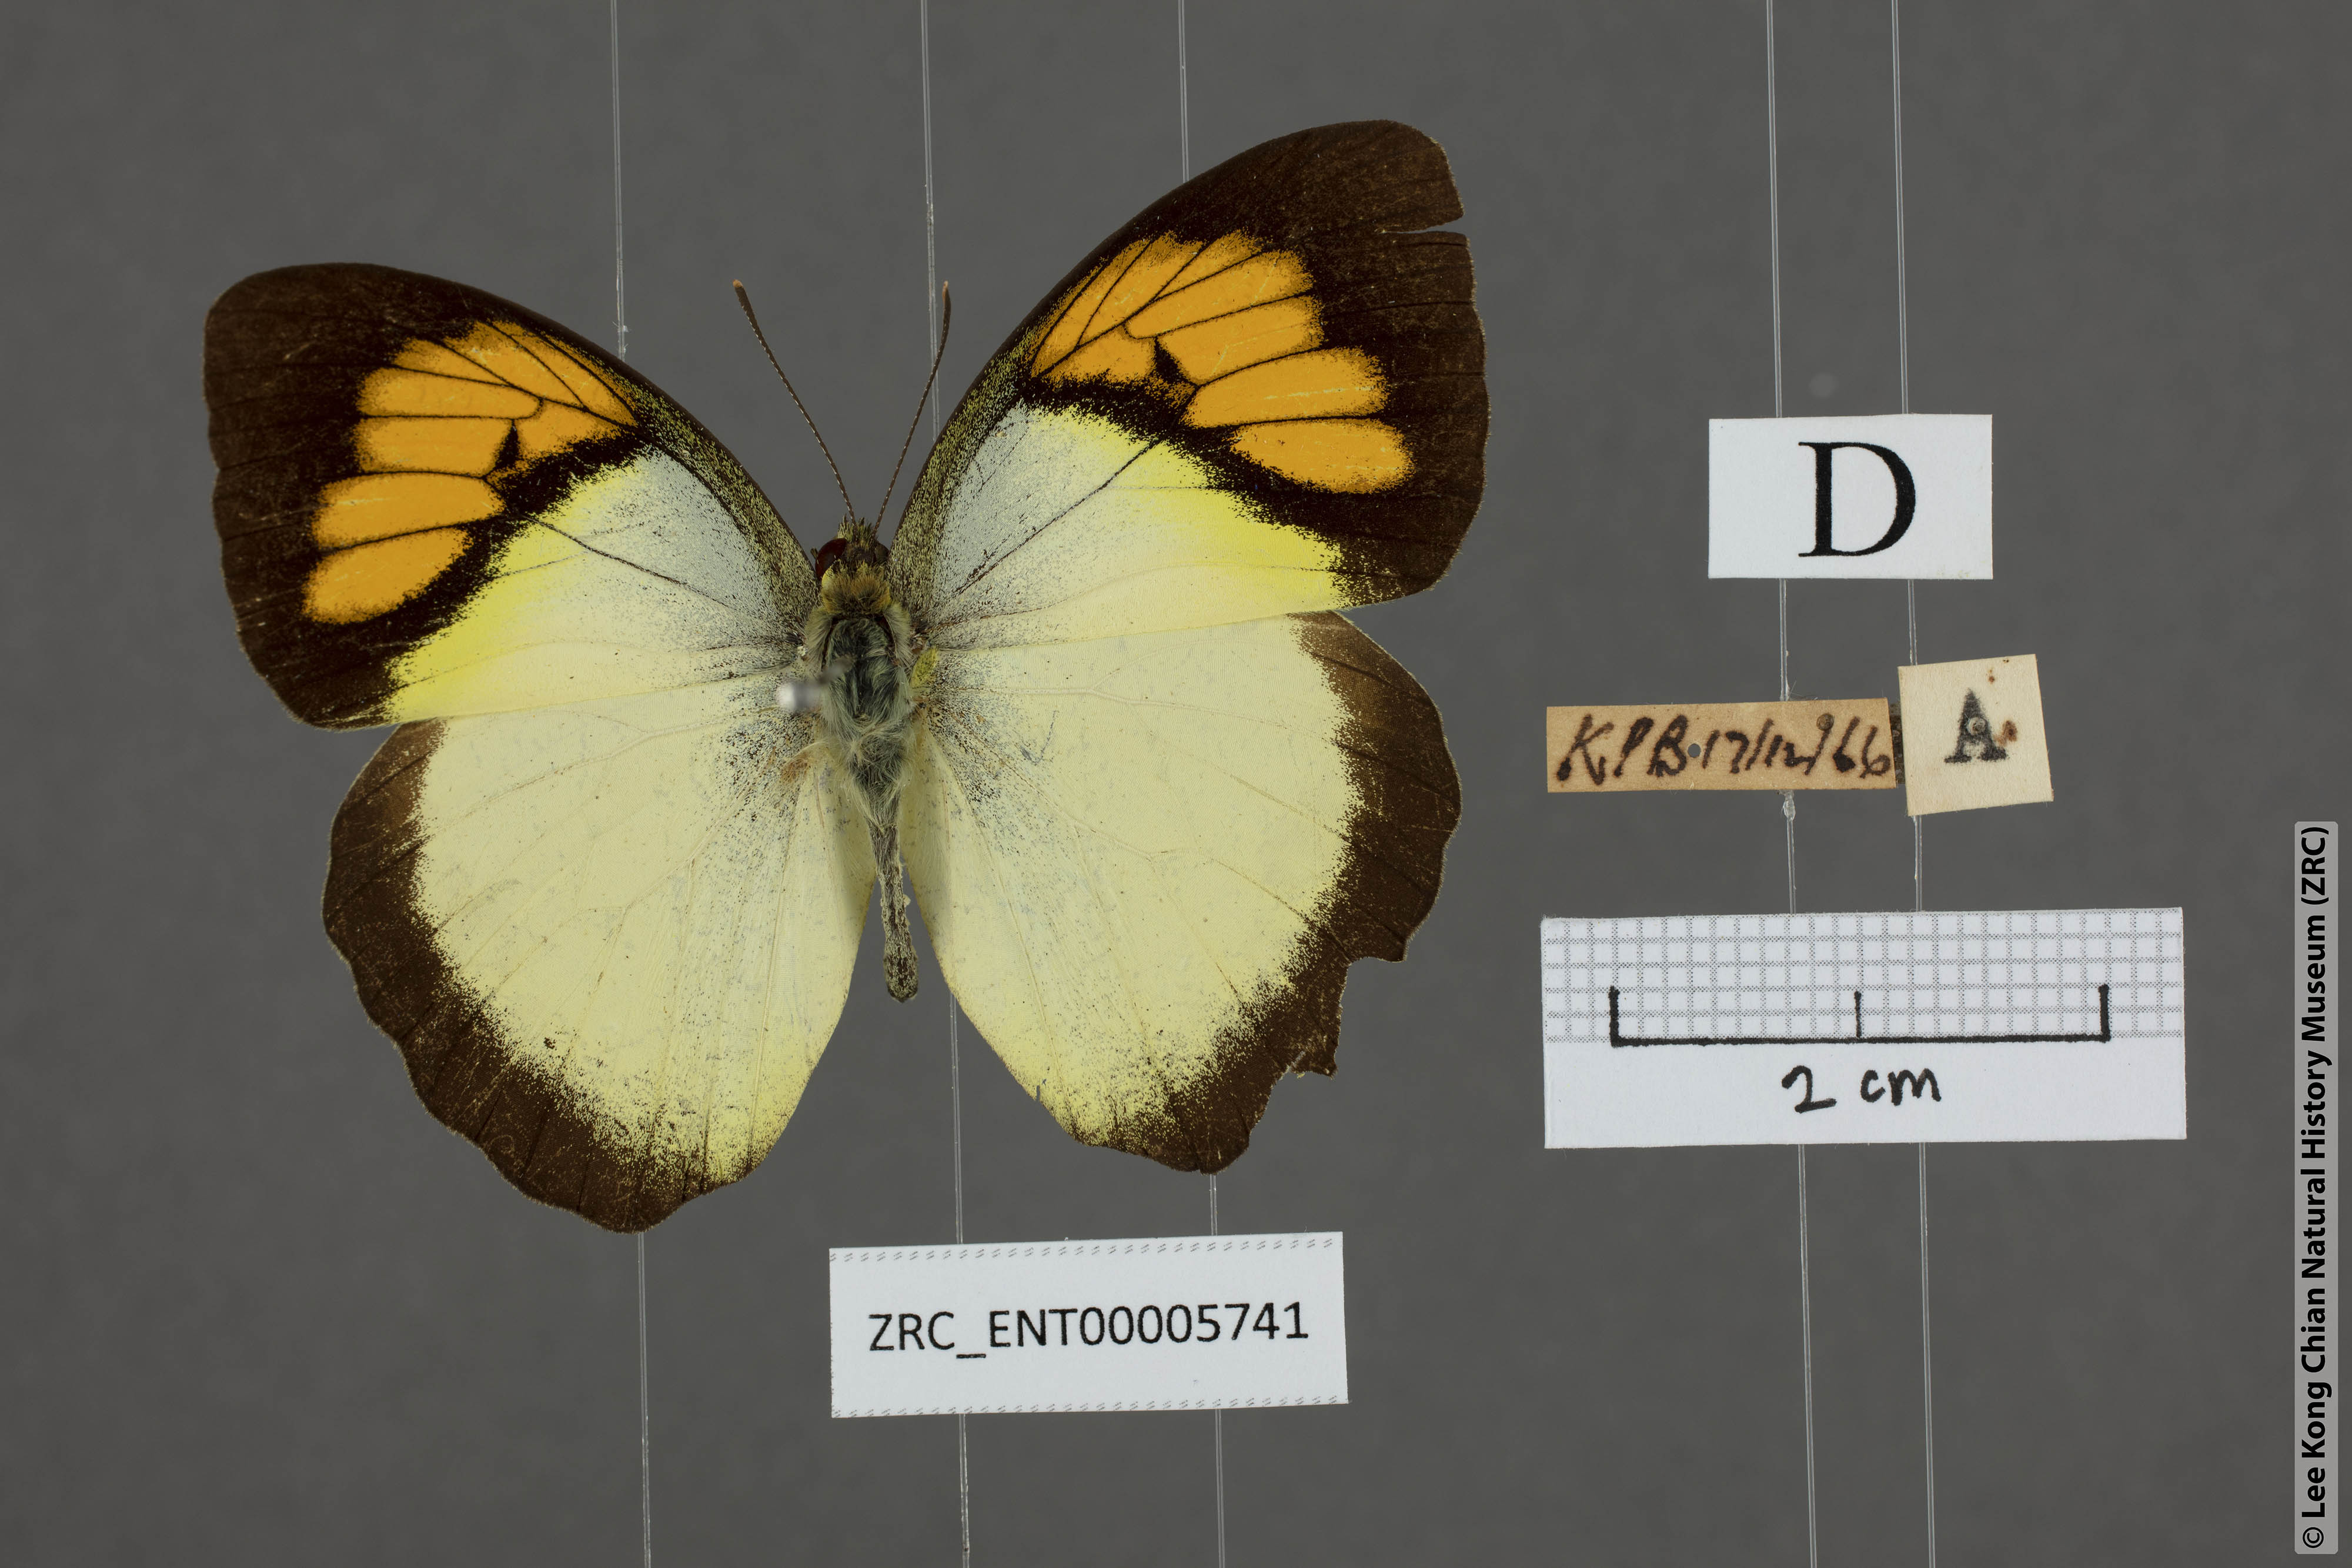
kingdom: Animalia
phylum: Arthropoda
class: Insecta
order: Lepidoptera
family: Pieridae
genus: Ixias
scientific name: Ixias pyrene
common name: Yellow orange tip
